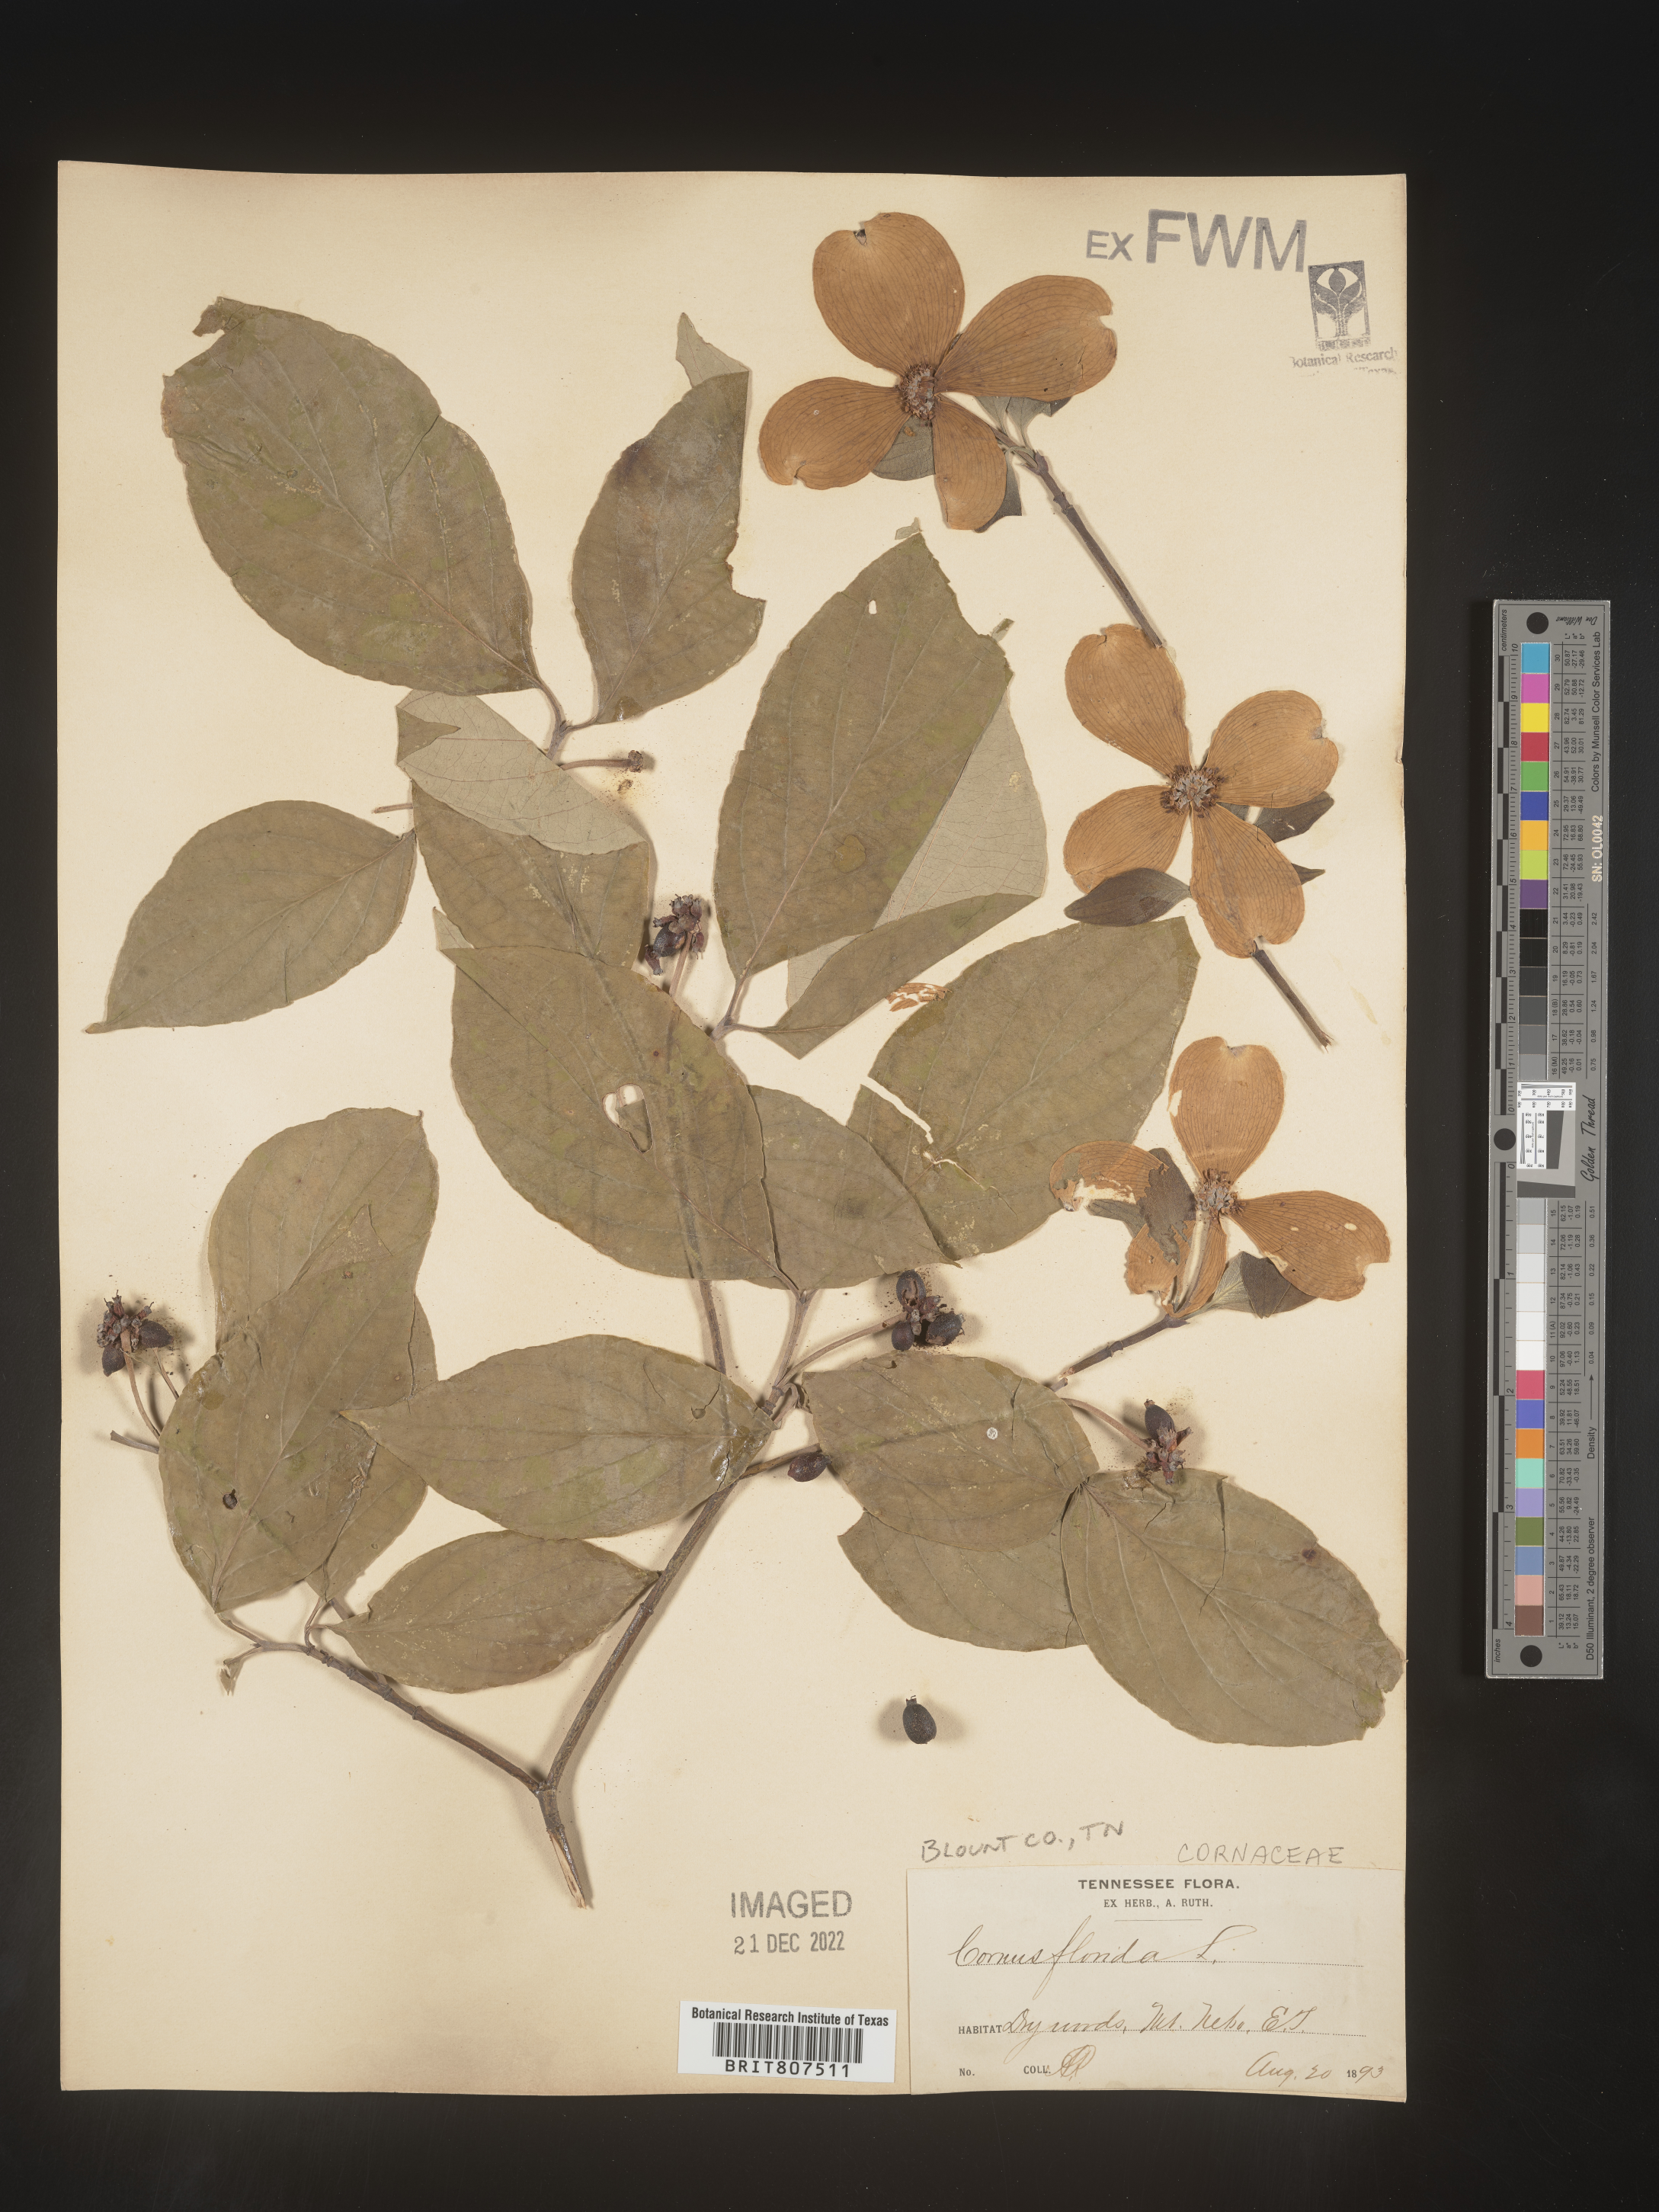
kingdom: Plantae
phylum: Tracheophyta
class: Magnoliopsida
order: Cornales
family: Cornaceae
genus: Cornus
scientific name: Cornus florida
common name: Flowering dogwood
